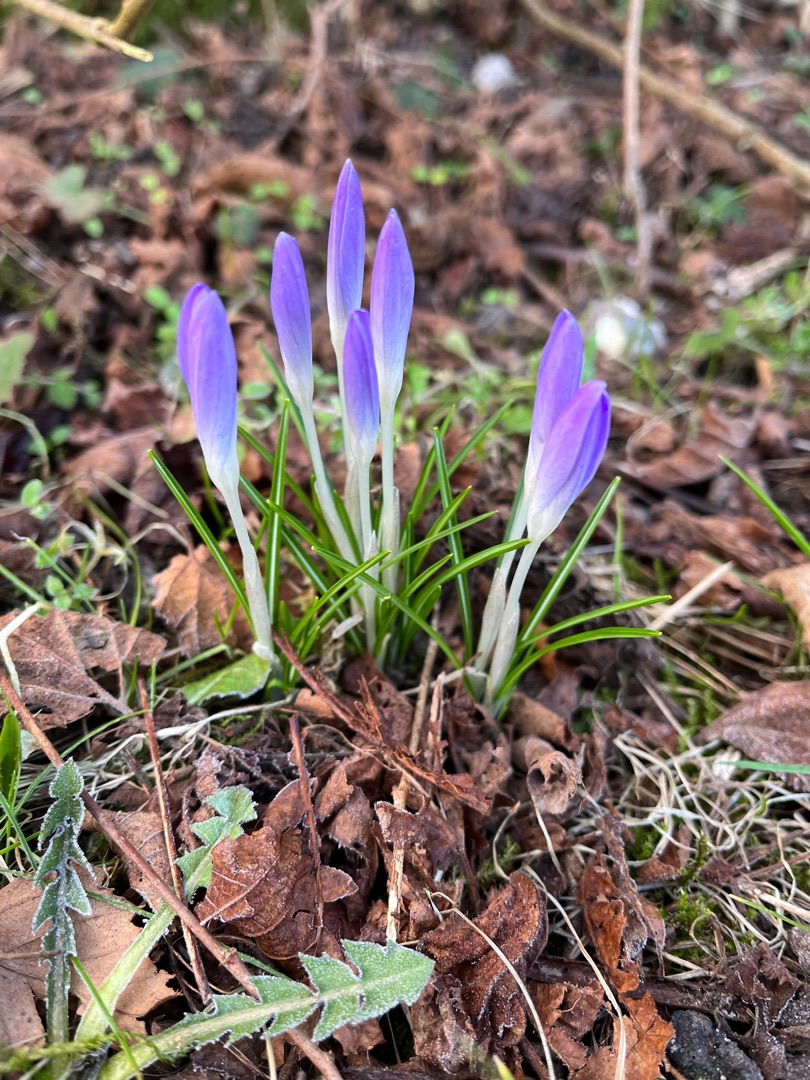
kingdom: Plantae
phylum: Tracheophyta
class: Liliopsida
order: Asparagales
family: Iridaceae
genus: Crocus
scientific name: Crocus tommasinianus
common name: Sne-krokus
